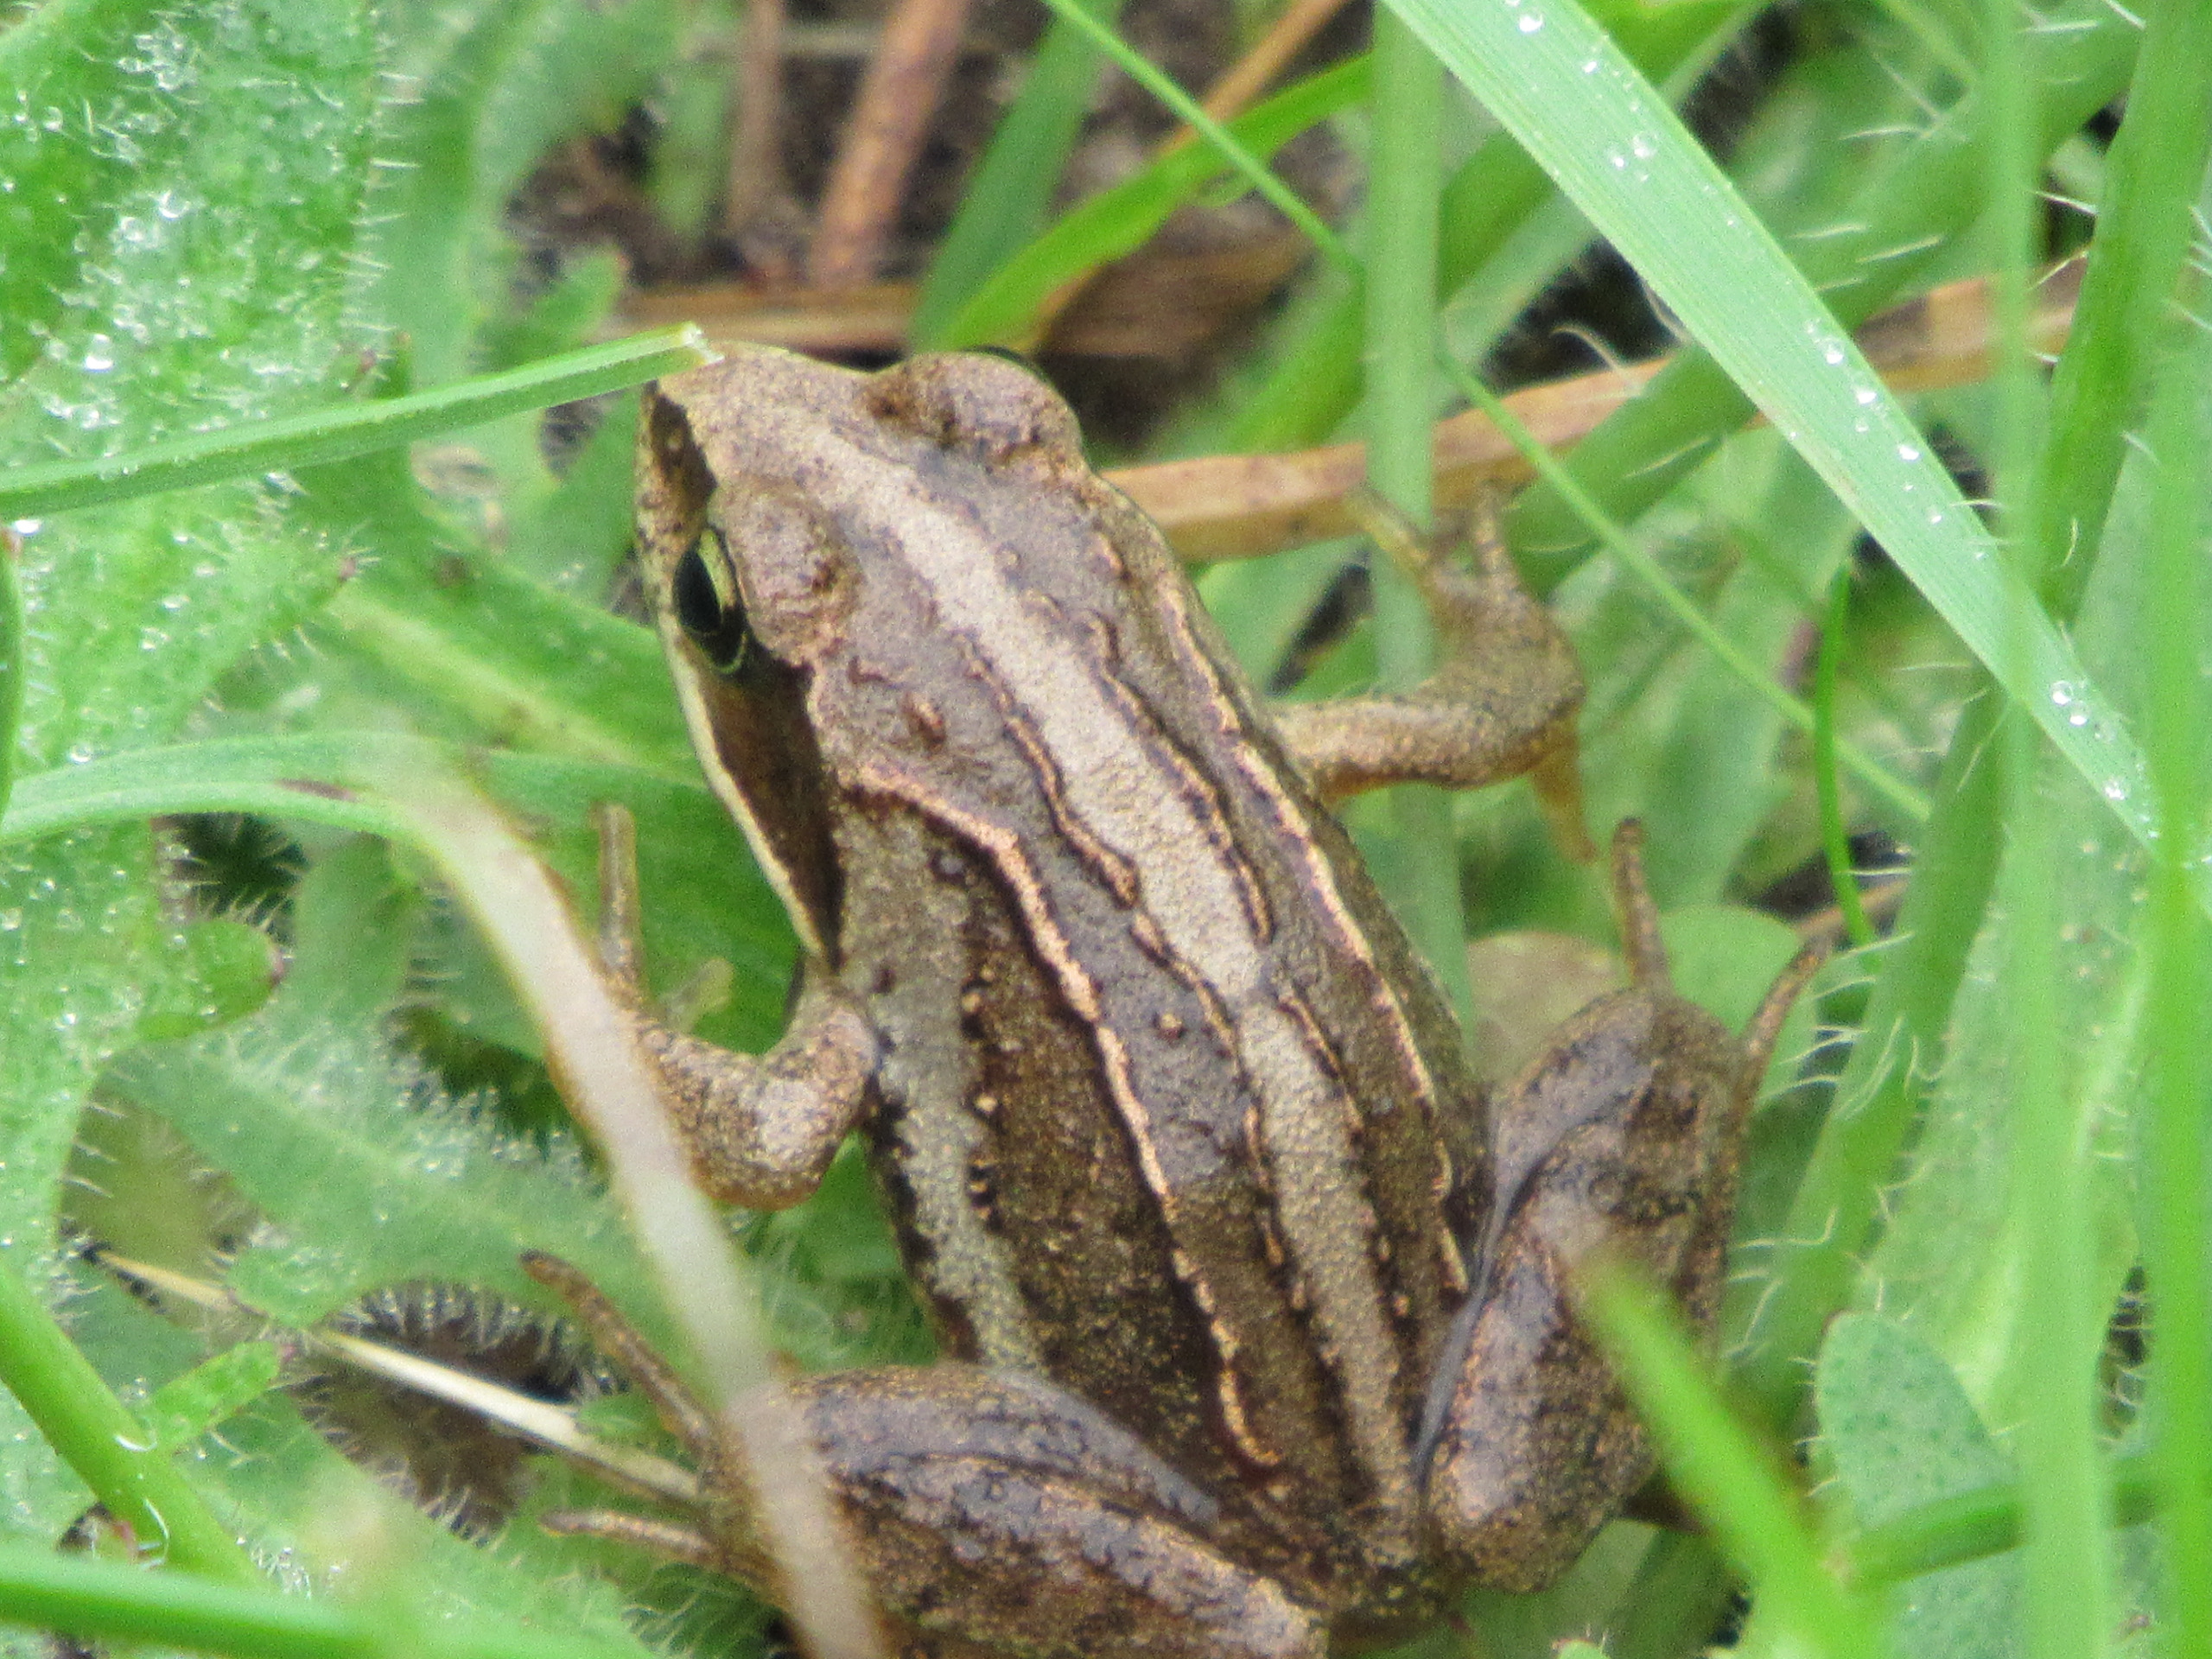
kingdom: Animalia
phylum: Chordata
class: Amphibia
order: Anura
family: Ranidae
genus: Rana
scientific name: Rana arvalis
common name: Spidssnudet frø
